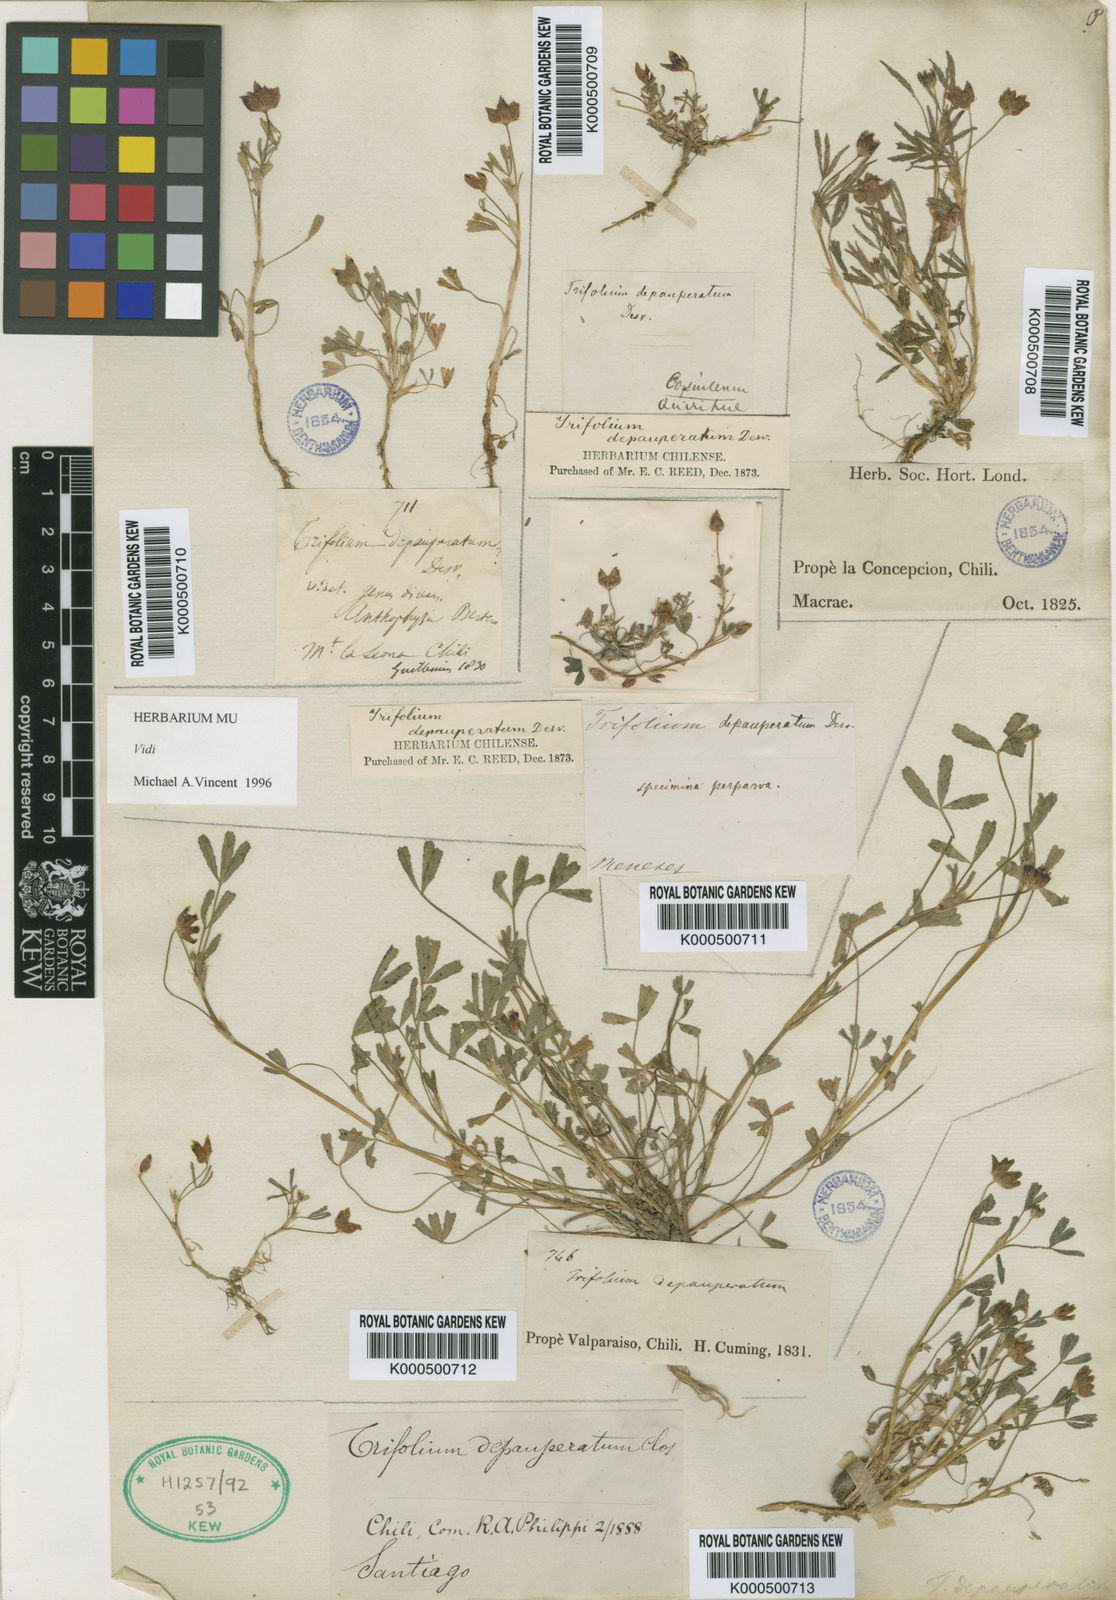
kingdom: Plantae
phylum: Tracheophyta
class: Magnoliopsida
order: Fabales
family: Fabaceae
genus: Trifolium
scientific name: Trifolium depauperatum
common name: Poverty clover
